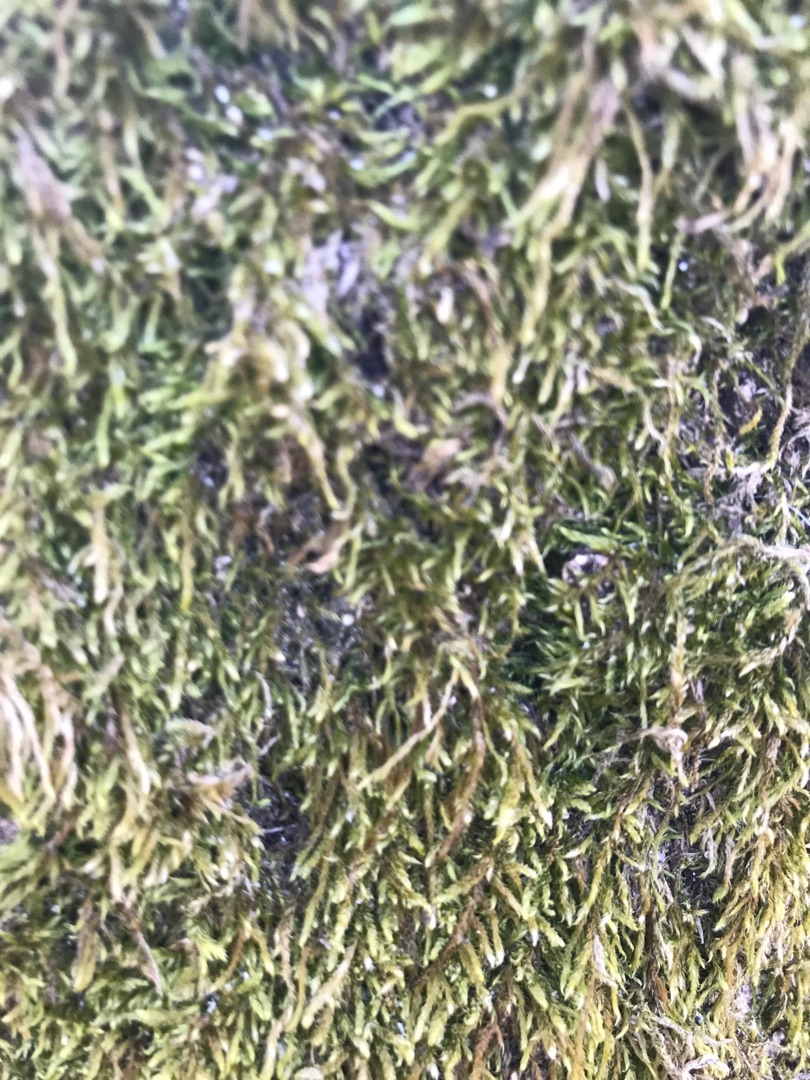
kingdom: Plantae
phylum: Bryophyta
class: Bryopsida
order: Hypnales
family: Hypnaceae
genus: Hypnum
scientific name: Hypnum
